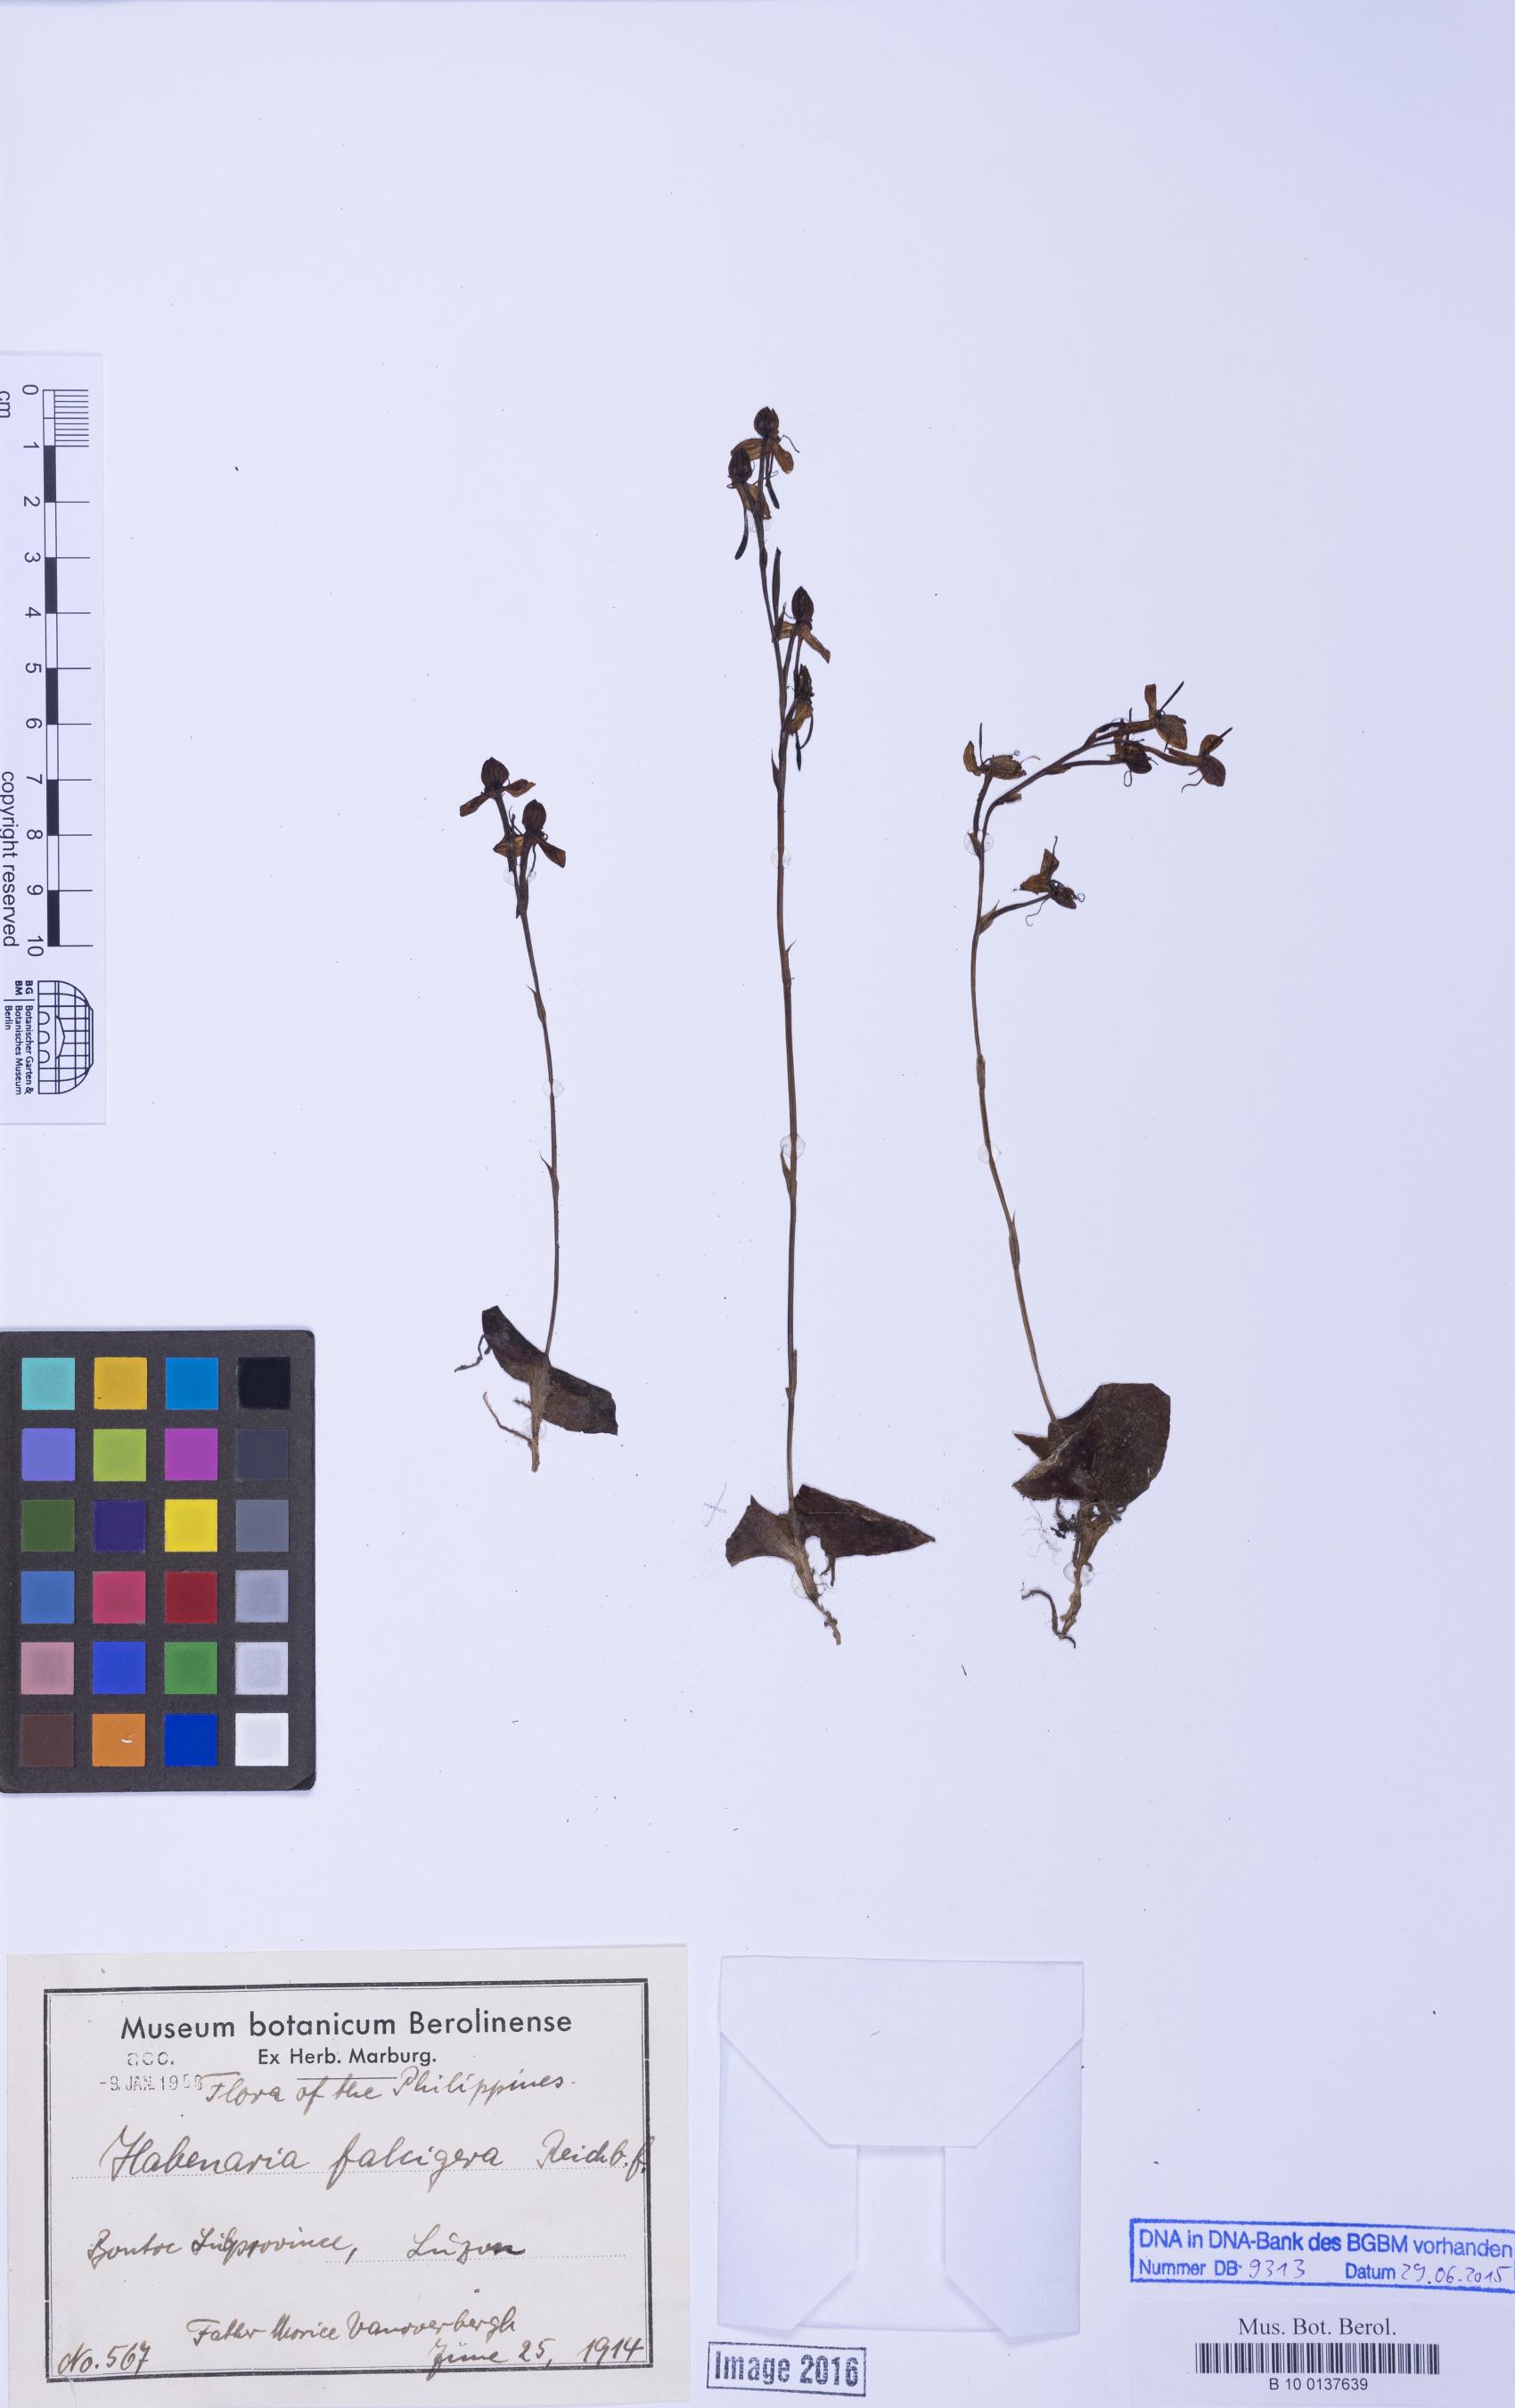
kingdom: Plantae
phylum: Tracheophyta
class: Liliopsida
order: Asparagales
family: Orchidaceae
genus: Habenaria
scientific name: Habenaria falcigera
